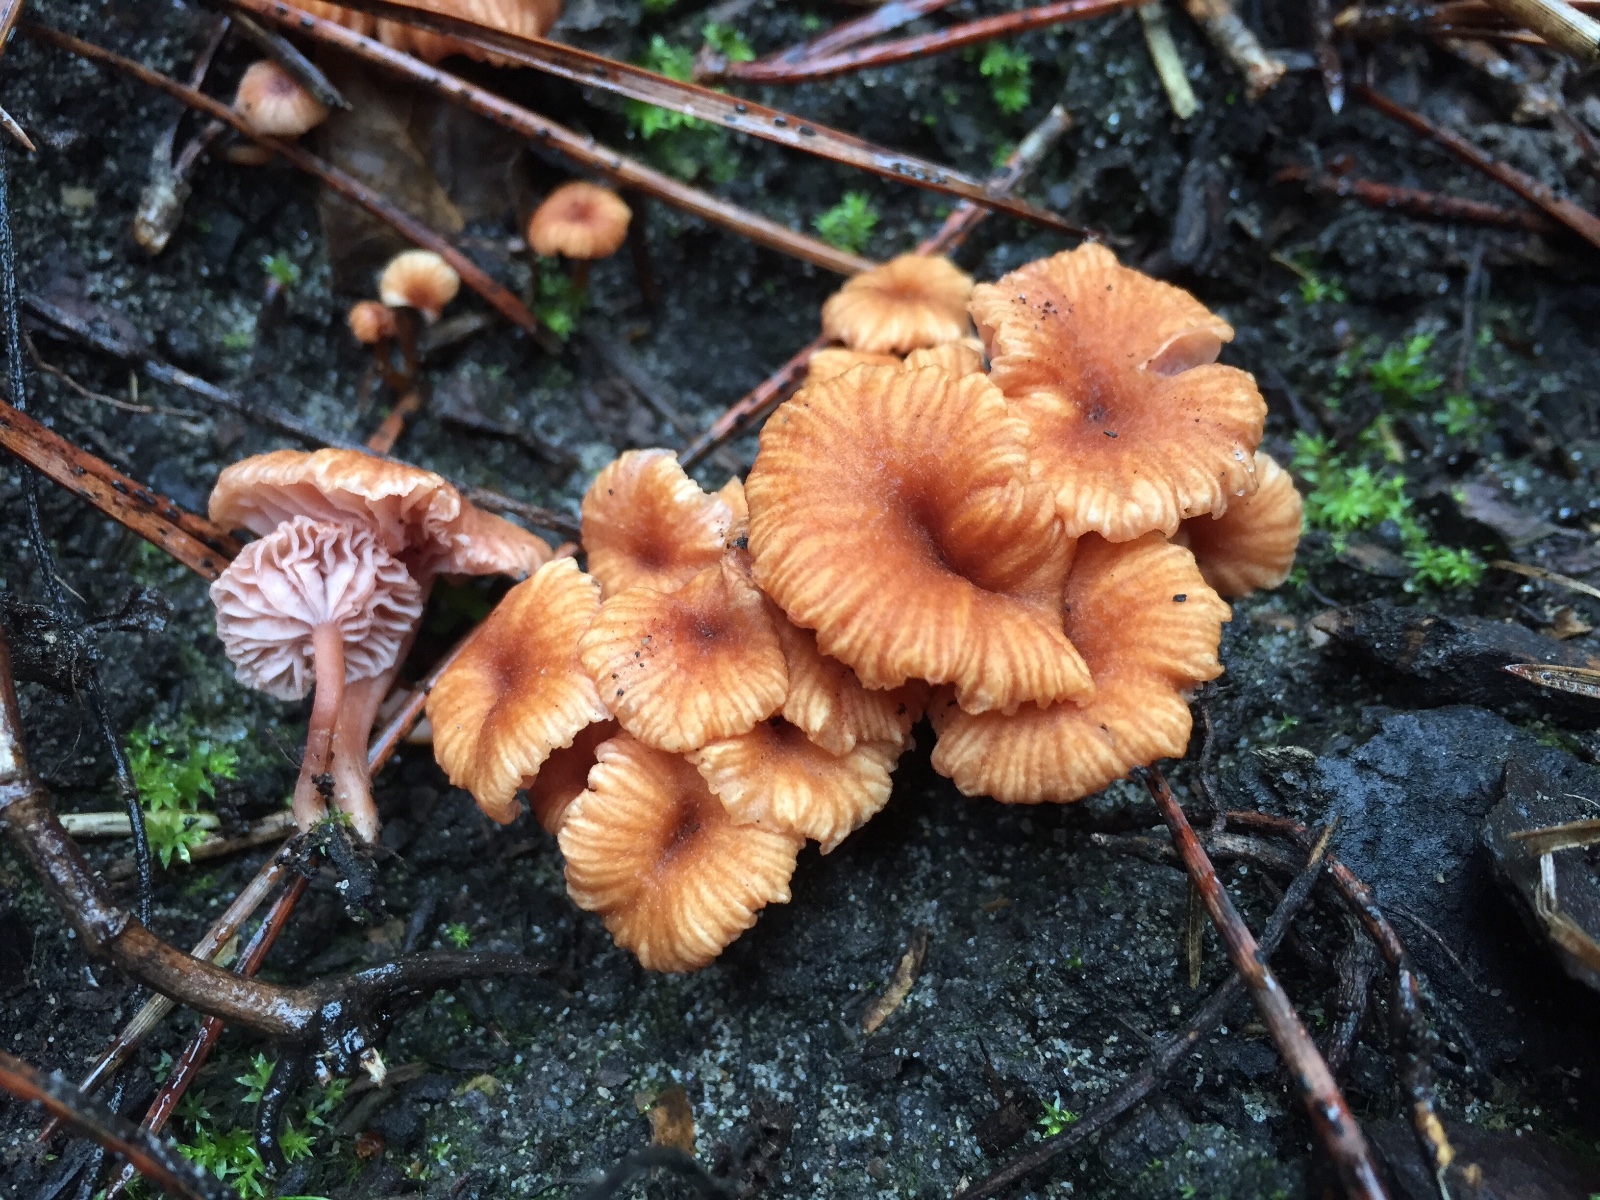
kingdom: Fungi
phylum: Basidiomycota
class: Agaricomycetes
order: Agaricales
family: Hydnangiaceae
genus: Laccaria
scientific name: Laccaria tortilis
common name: krybende ametysthat
